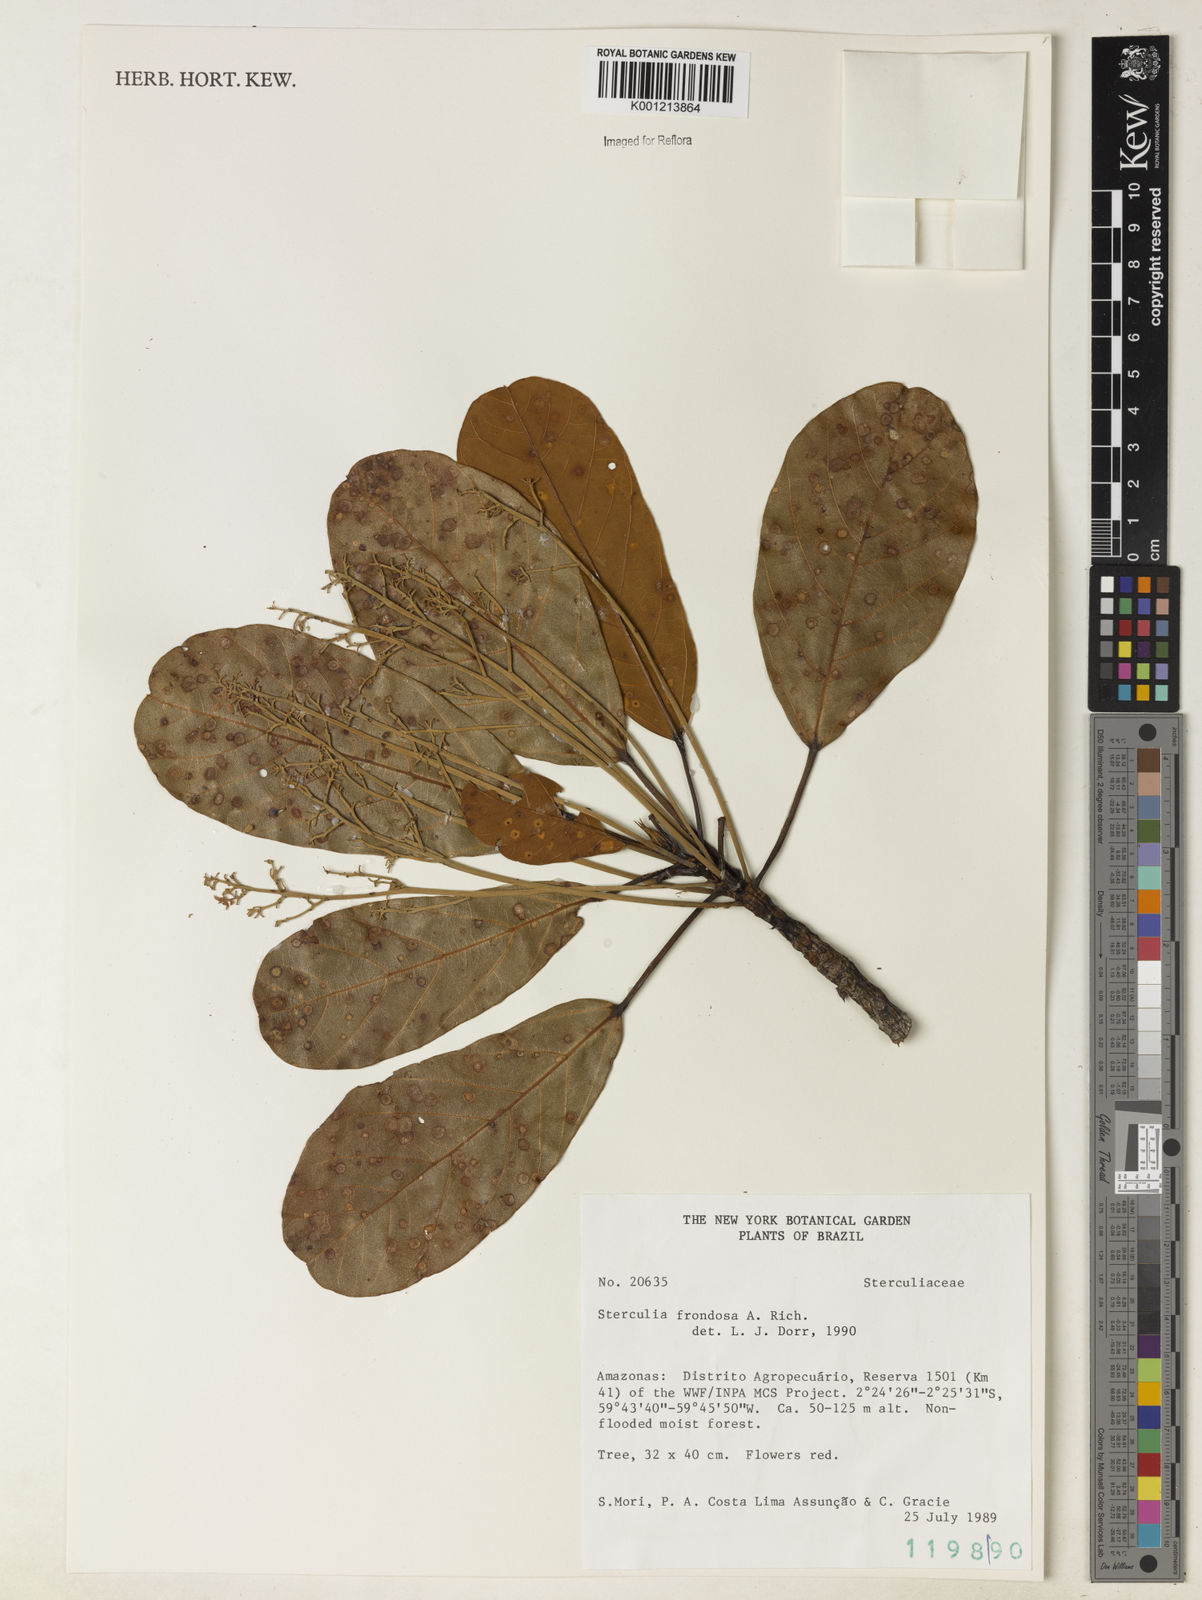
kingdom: Plantae
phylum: Tracheophyta
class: Magnoliopsida
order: Malvales
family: Malvaceae
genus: Sterculia
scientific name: Sterculia frondosa
